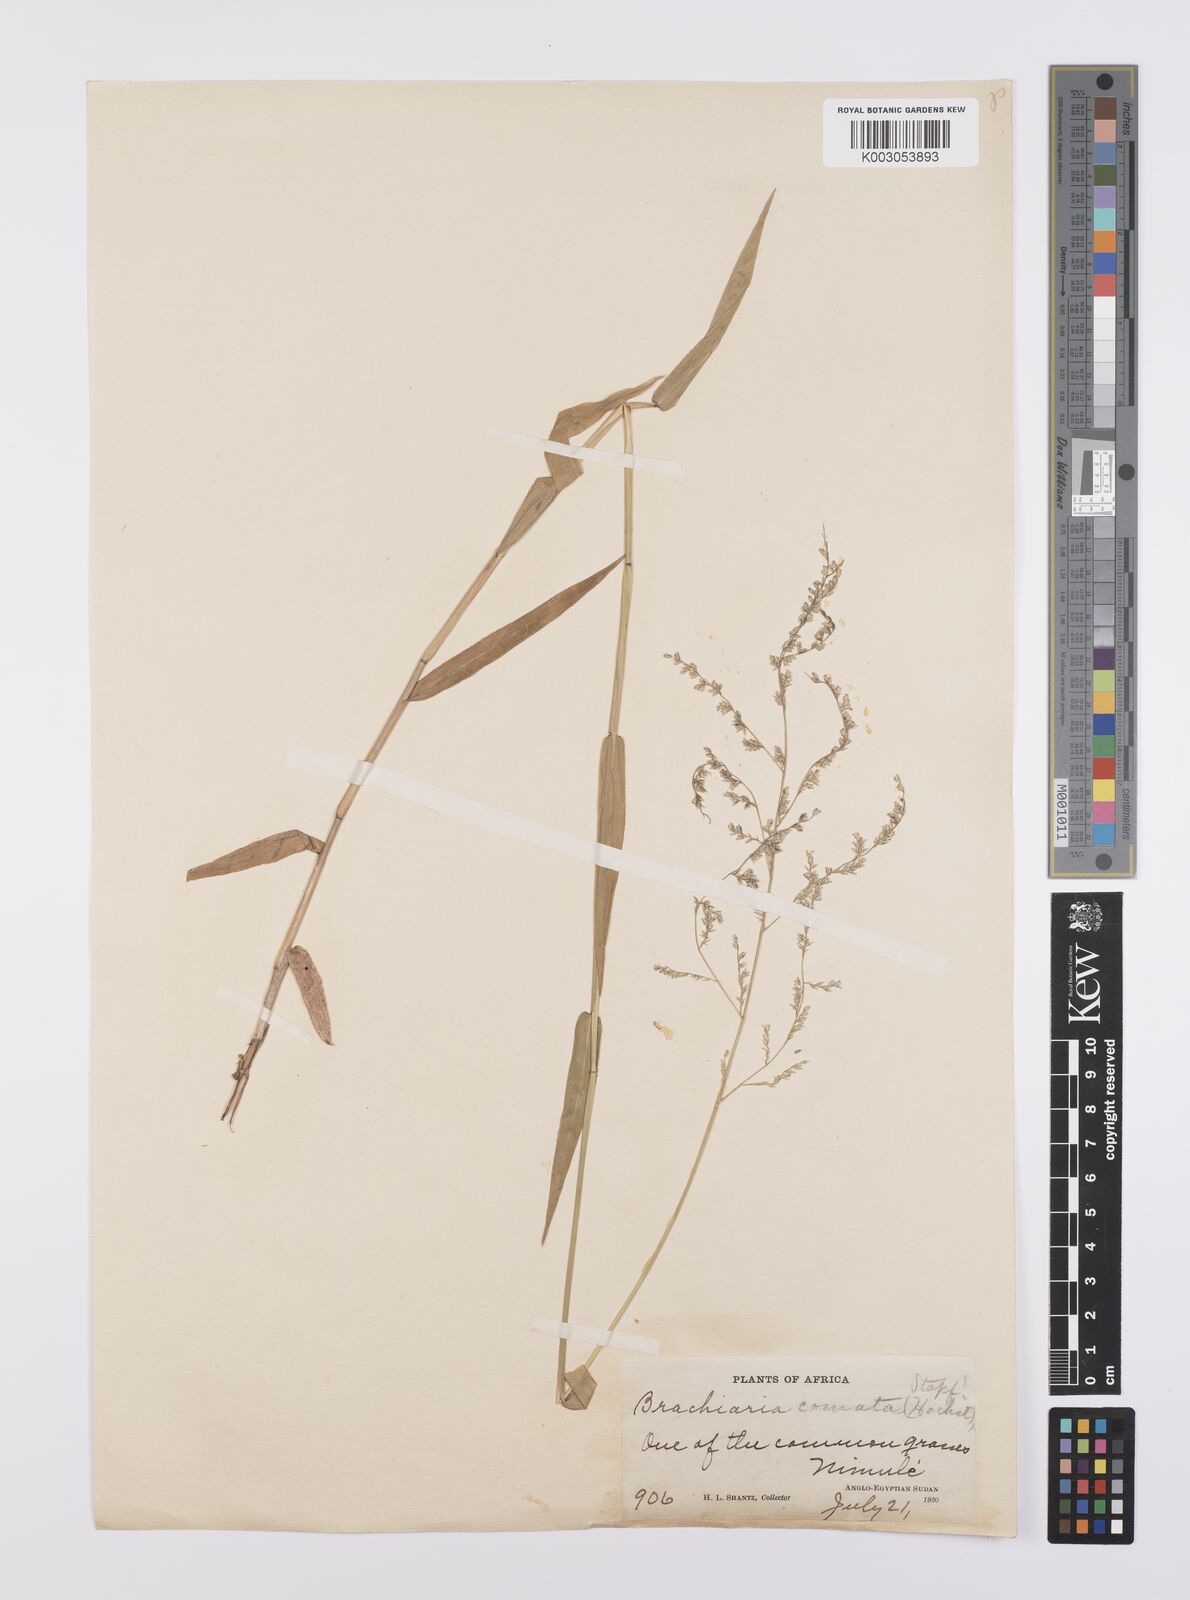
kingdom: Plantae
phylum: Tracheophyta
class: Liliopsida
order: Poales
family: Poaceae
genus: Urochloa
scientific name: Urochloa comata
